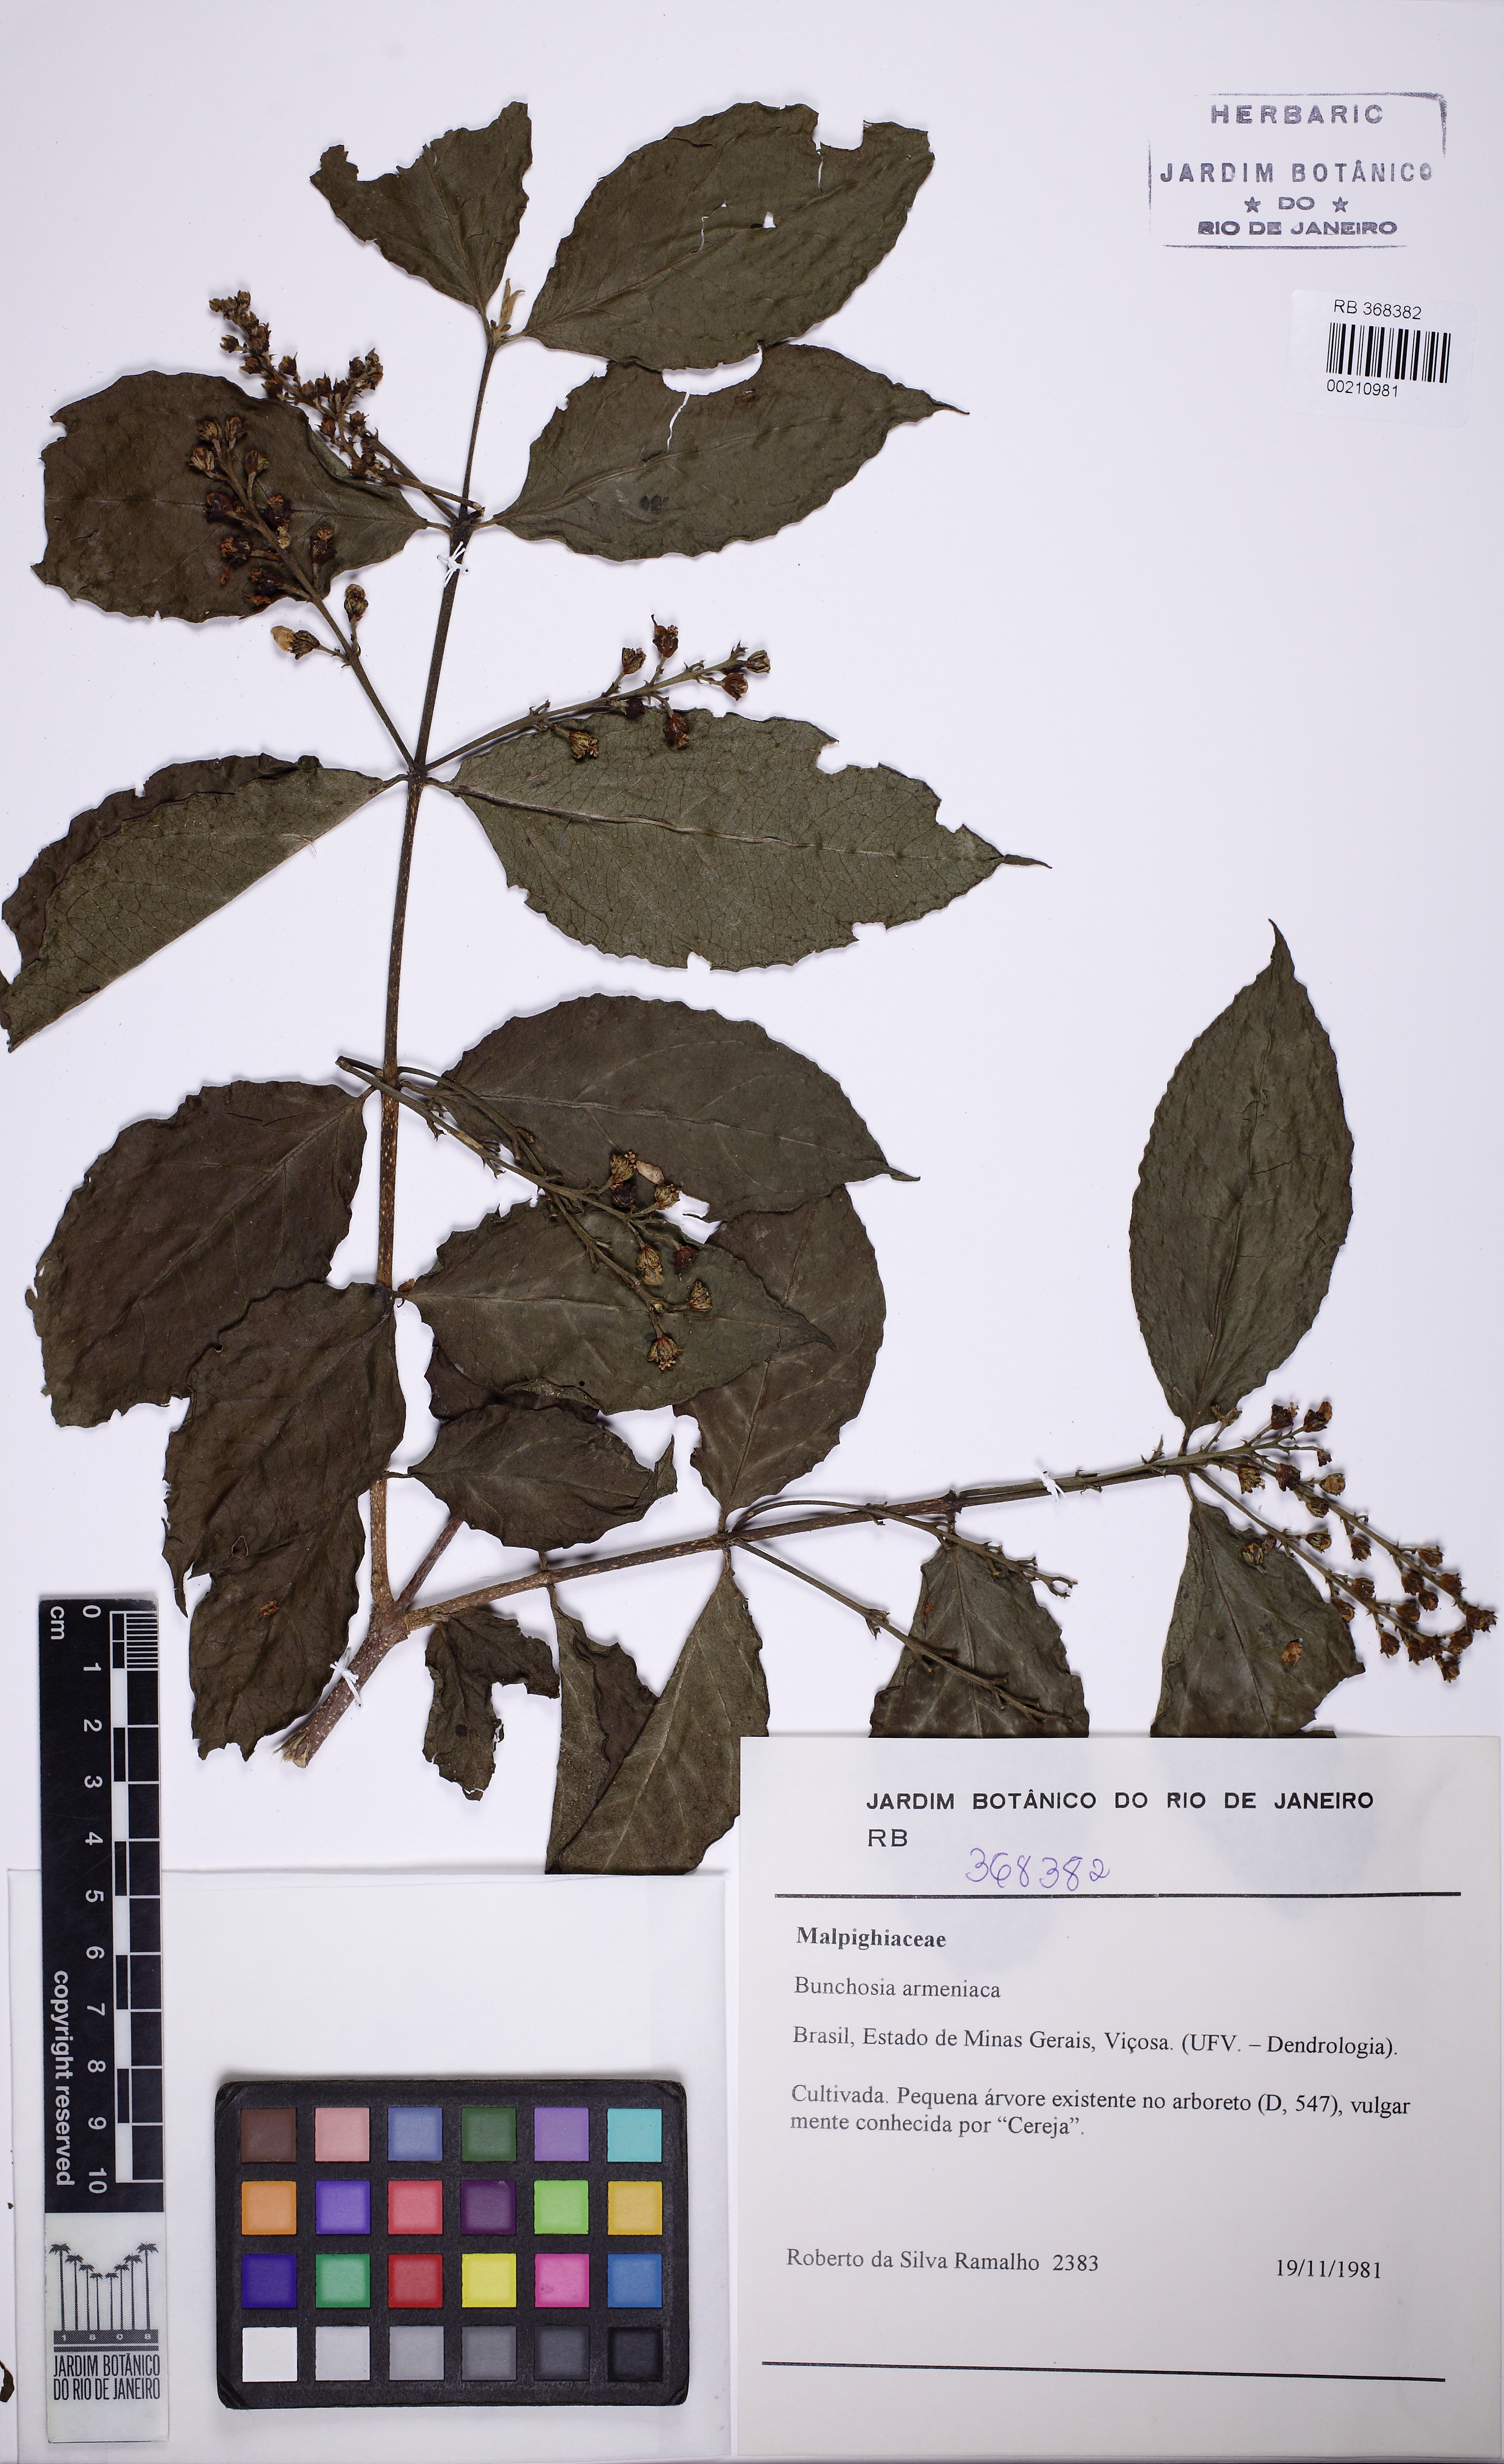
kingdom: Plantae
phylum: Tracheophyta
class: Magnoliopsida
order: Malpighiales
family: Malpighiaceae
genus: Bunchosia
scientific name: Bunchosia armeniaca
